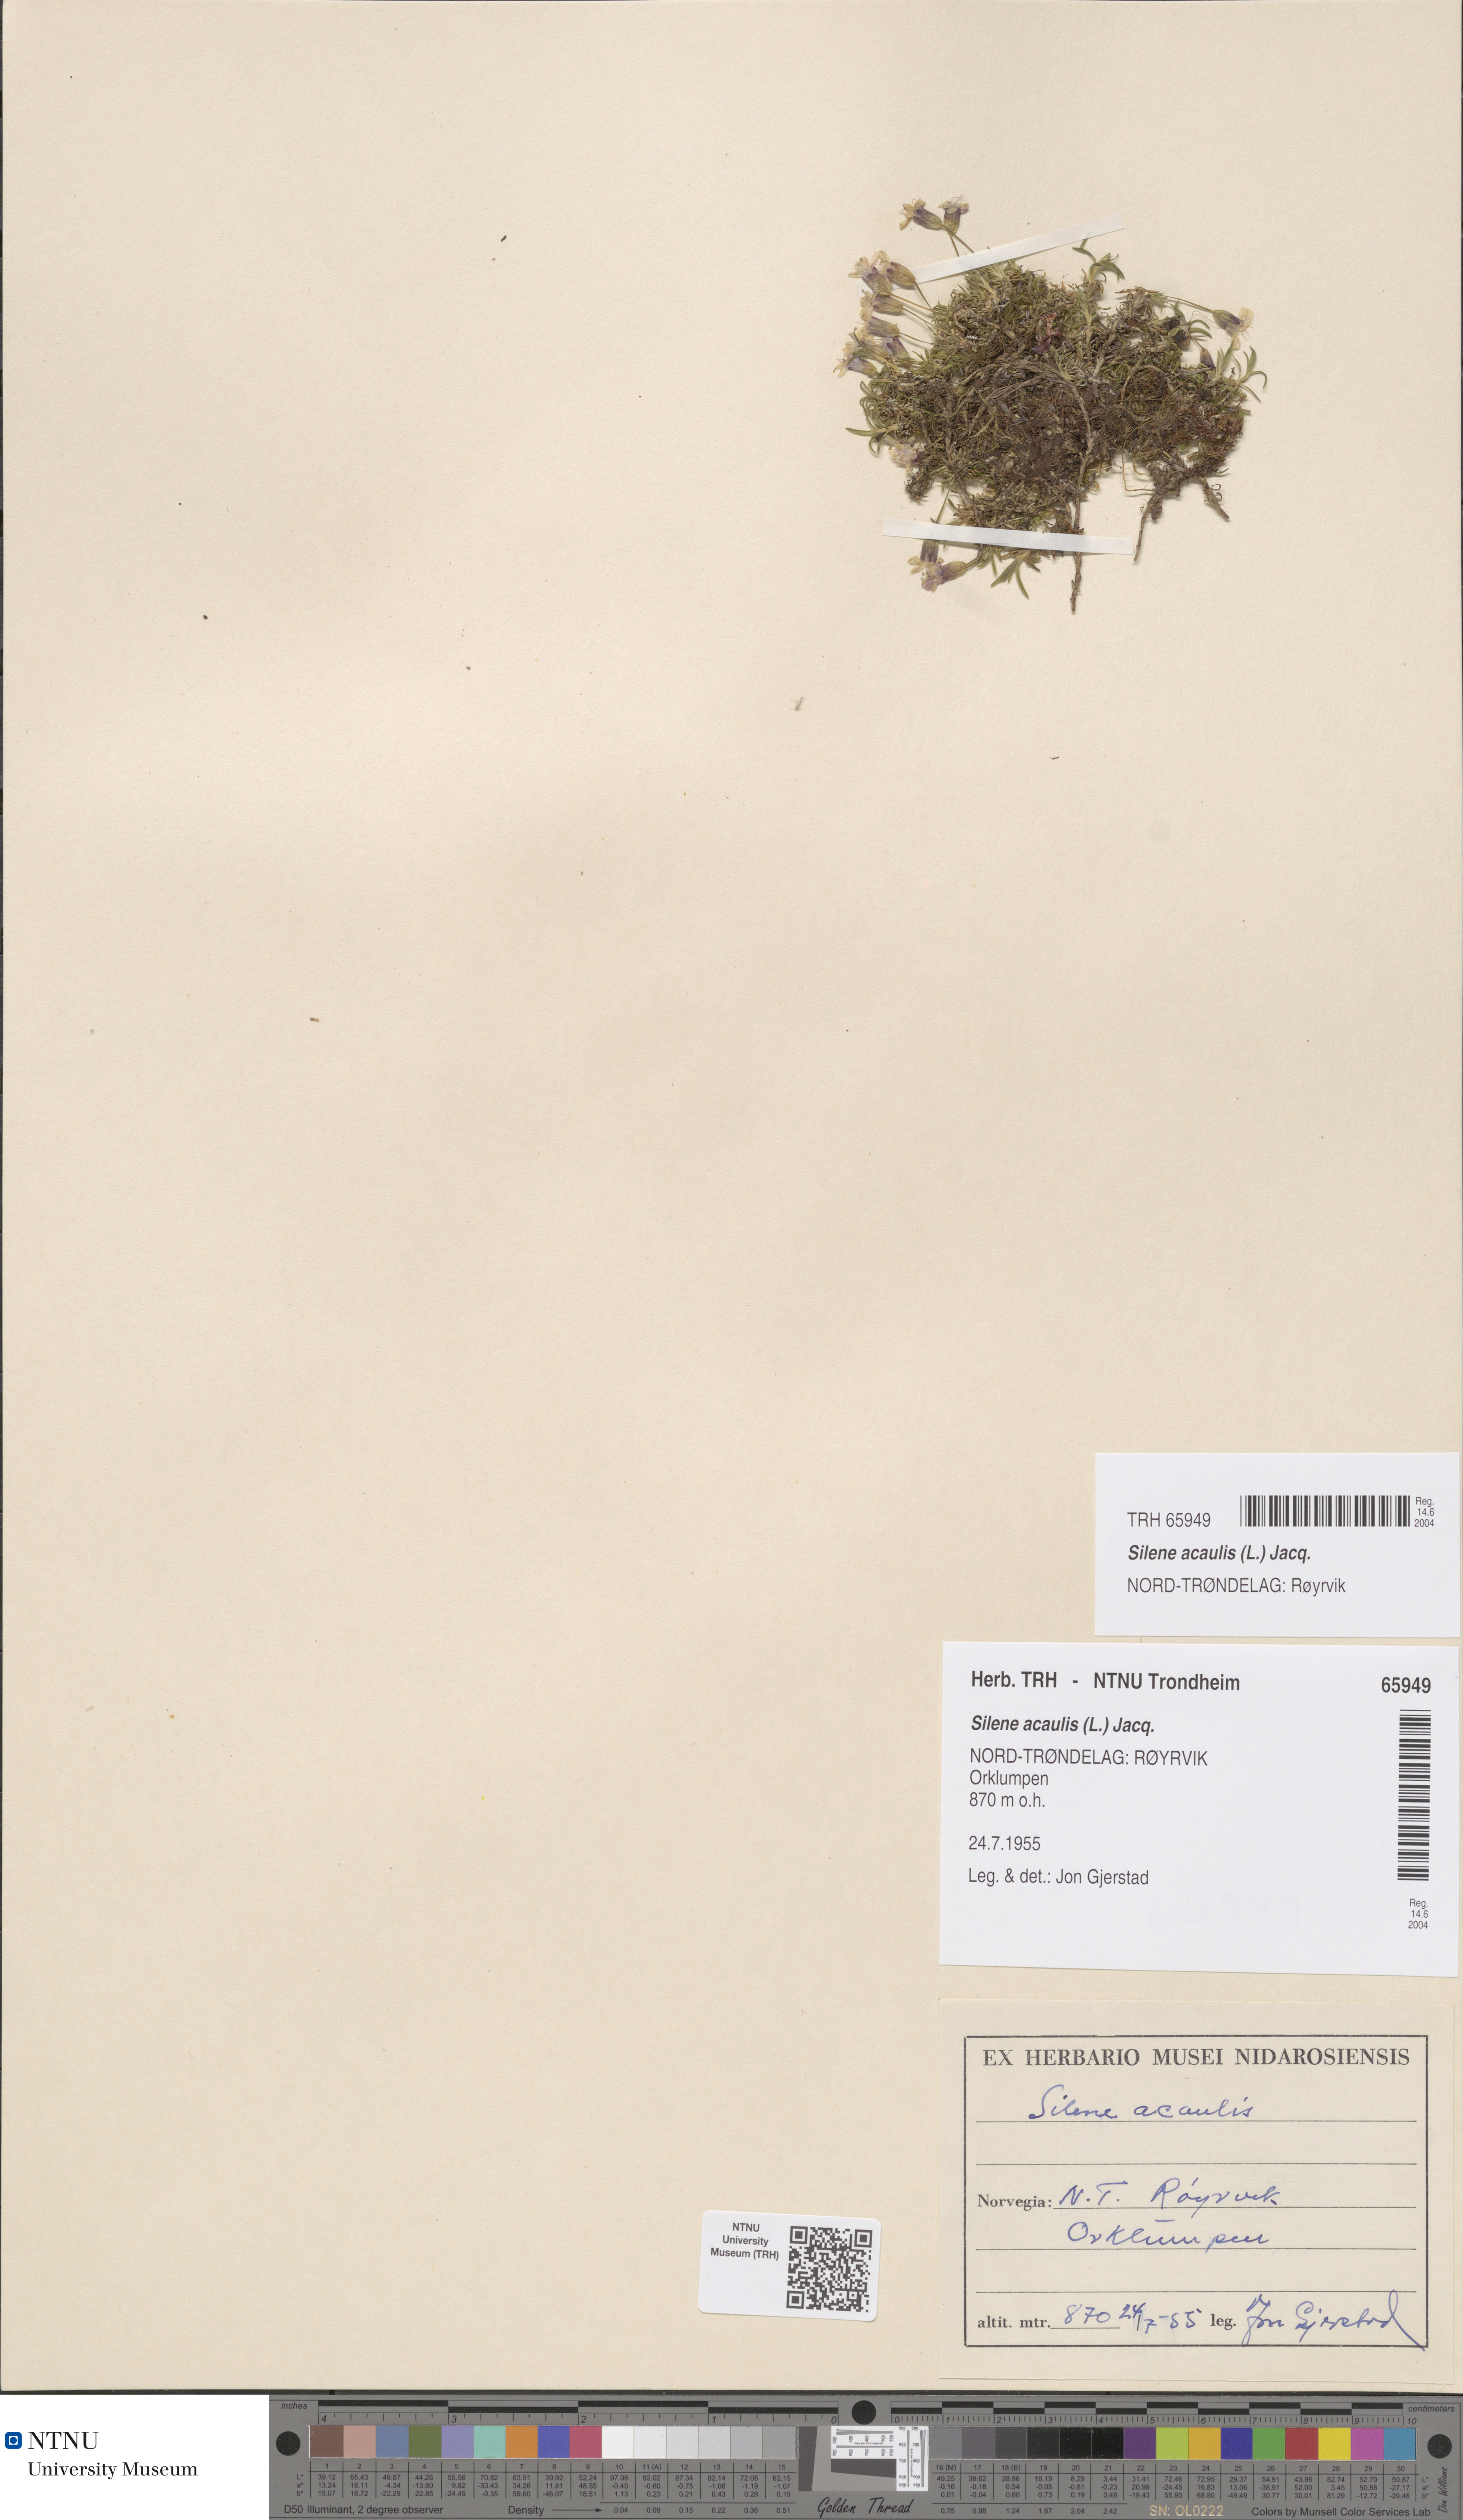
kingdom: Plantae
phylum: Tracheophyta
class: Magnoliopsida
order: Caryophyllales
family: Caryophyllaceae
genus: Silene
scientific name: Silene acaulis
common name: Moss campion
